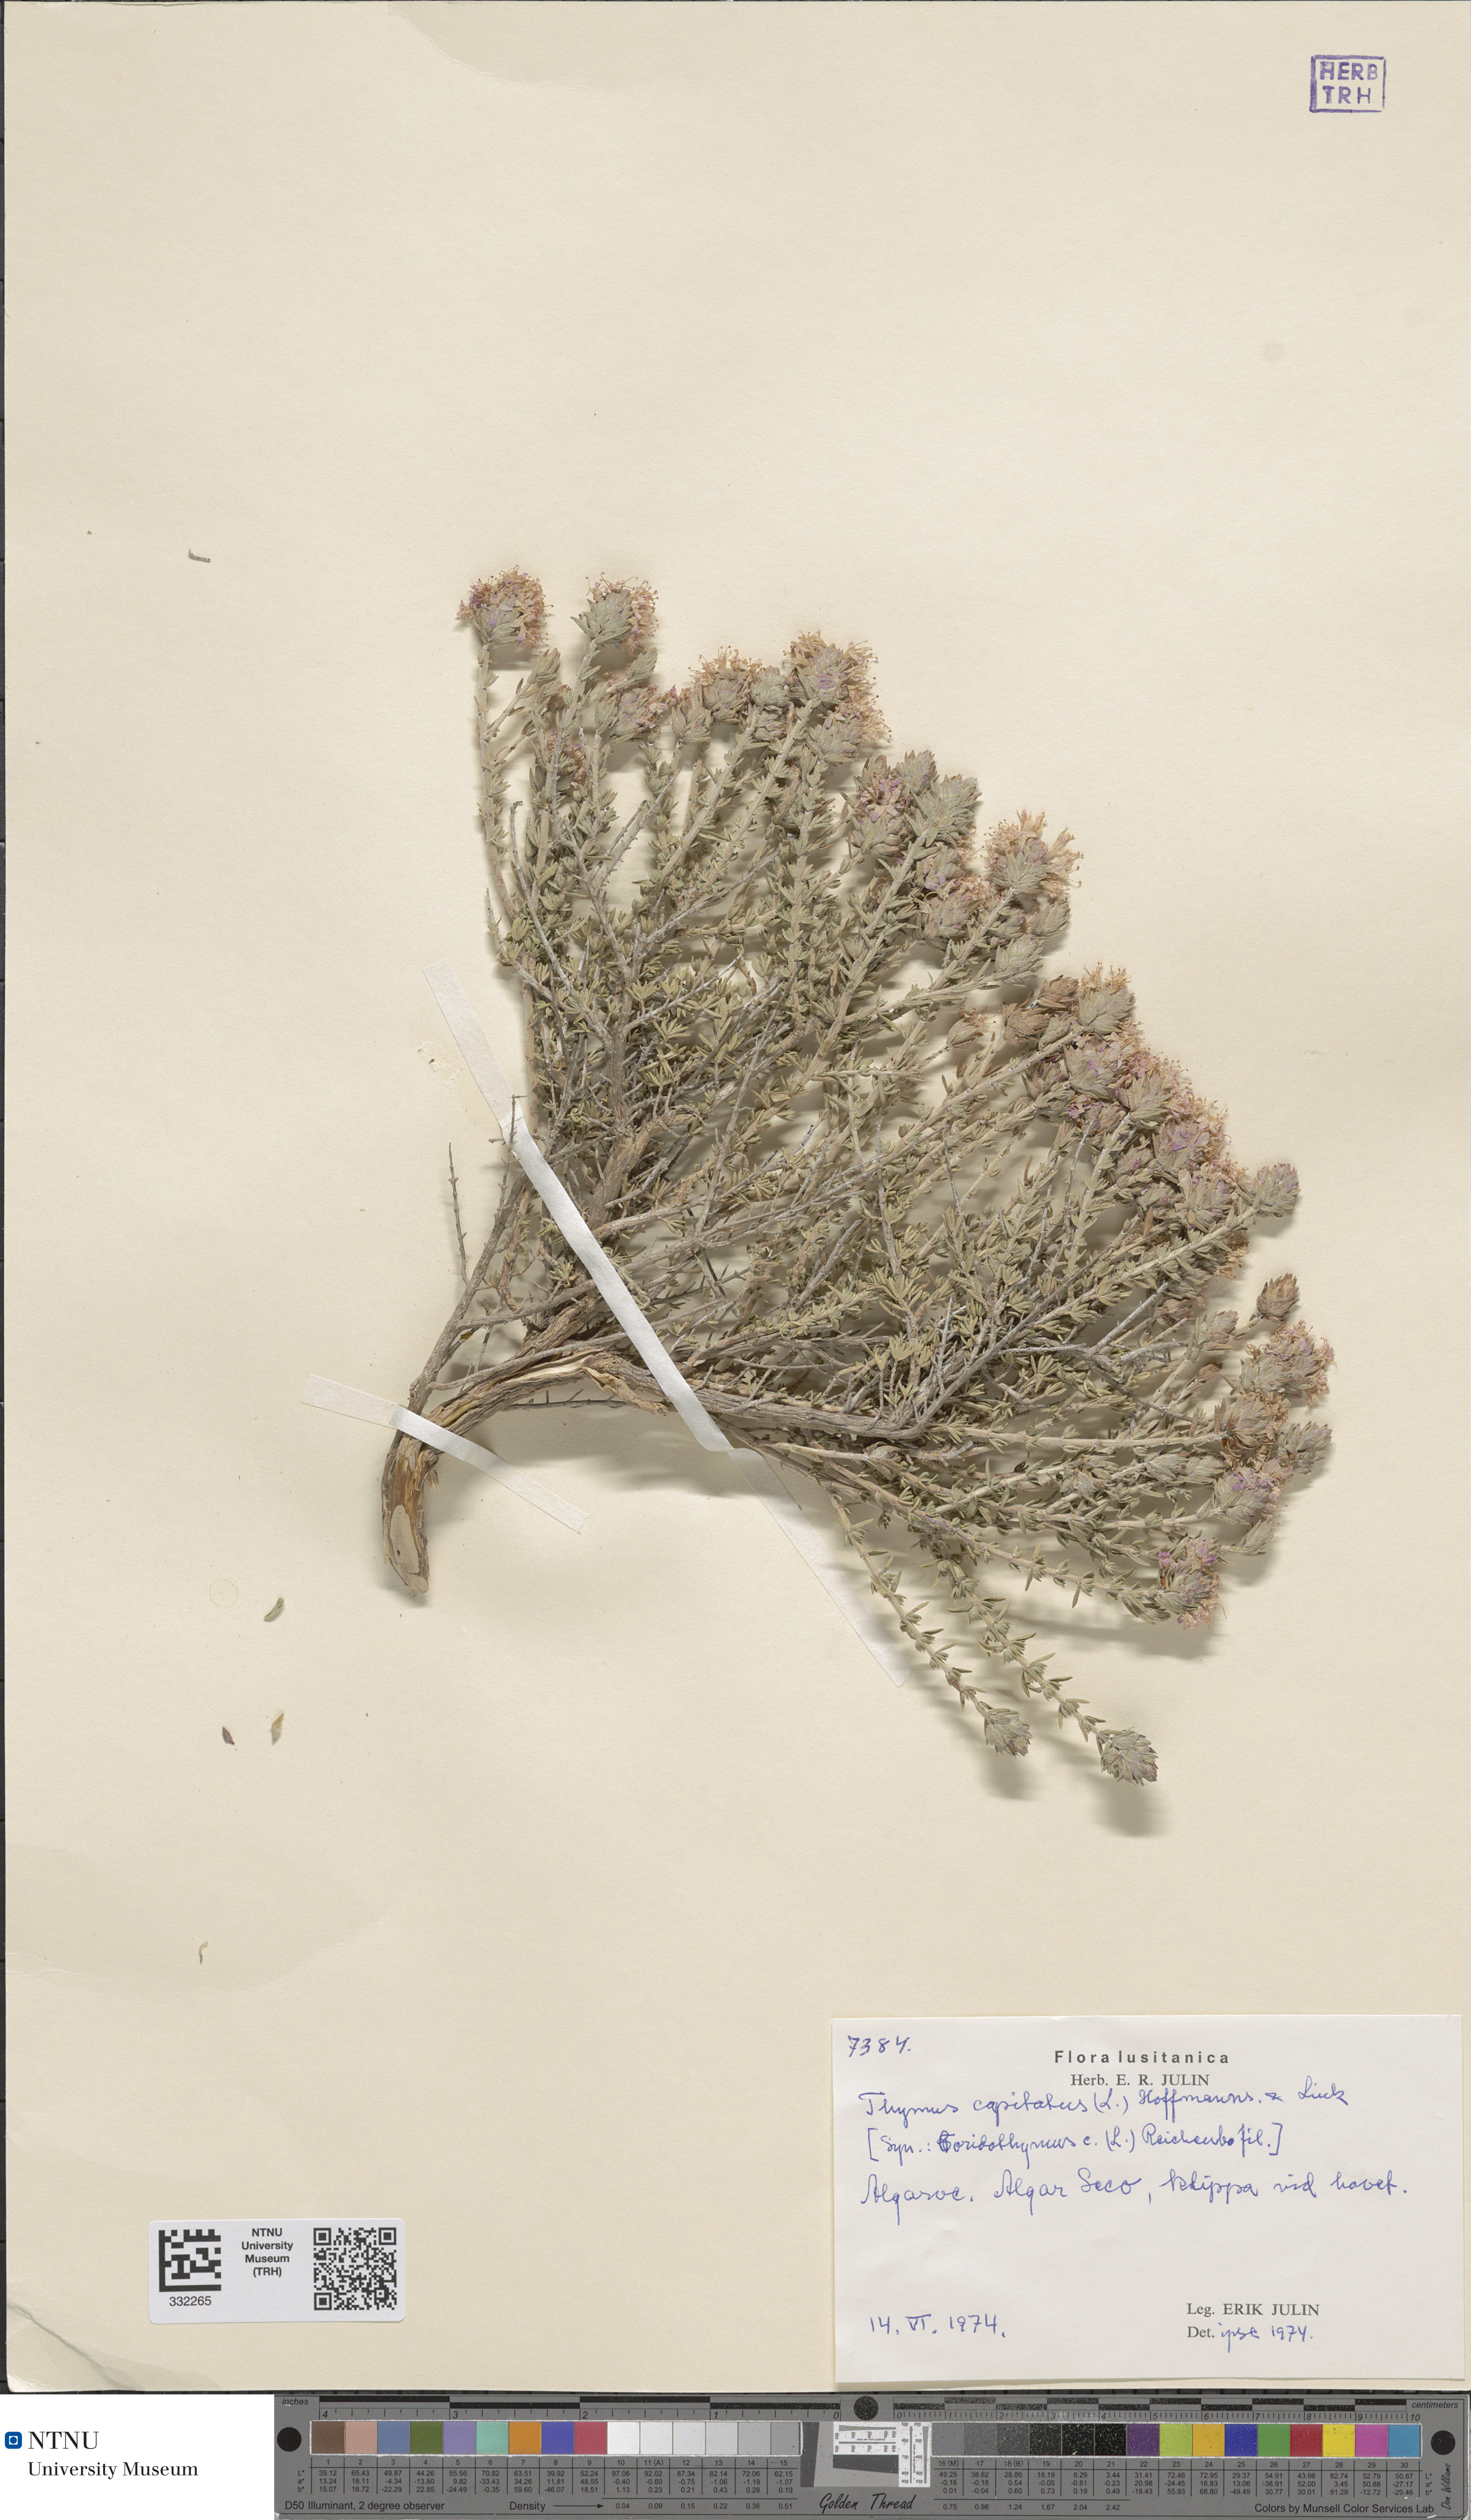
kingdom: Plantae
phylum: Tracheophyta
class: Magnoliopsida
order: Lamiales
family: Lamiaceae
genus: Thymbra
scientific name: Thymbra capitata
